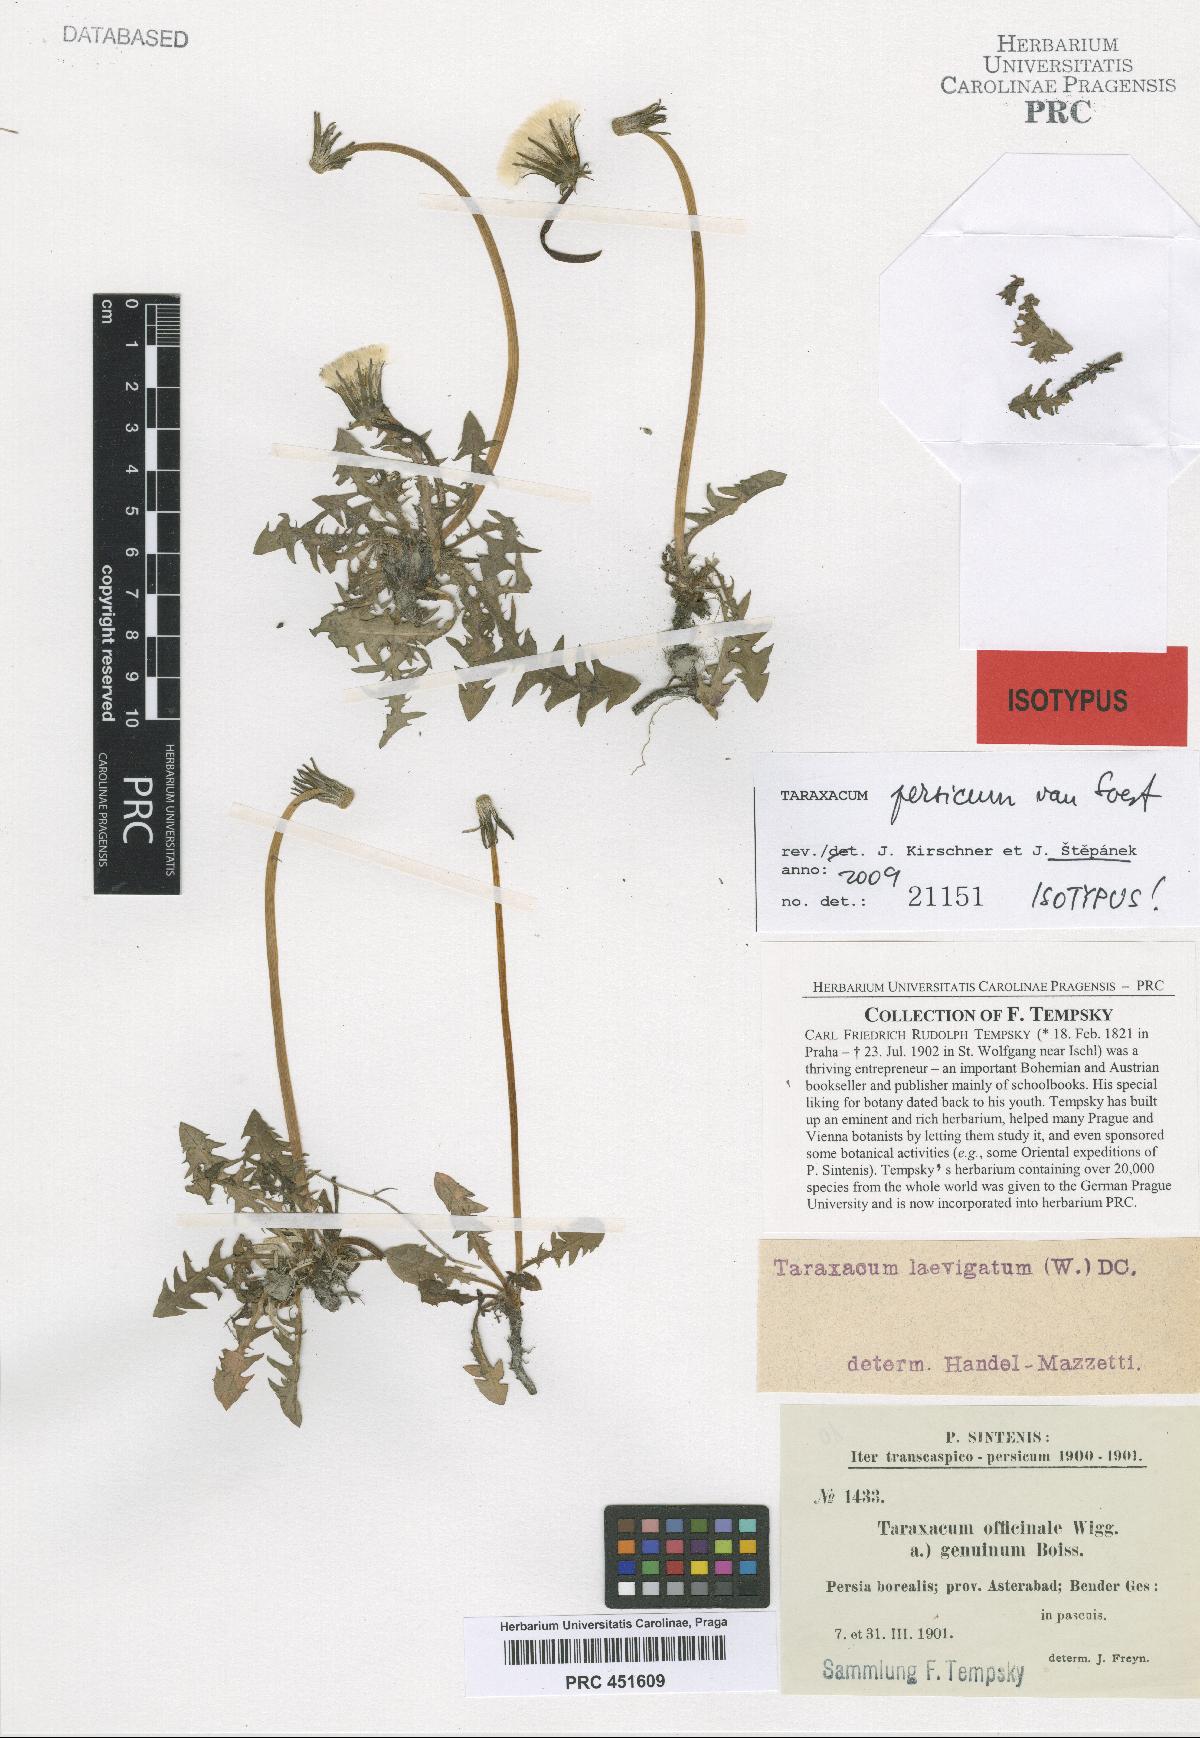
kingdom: Plantae
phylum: Tracheophyta
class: Magnoliopsida
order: Asterales
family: Asteraceae
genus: Taraxacum
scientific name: Taraxacum persicum
